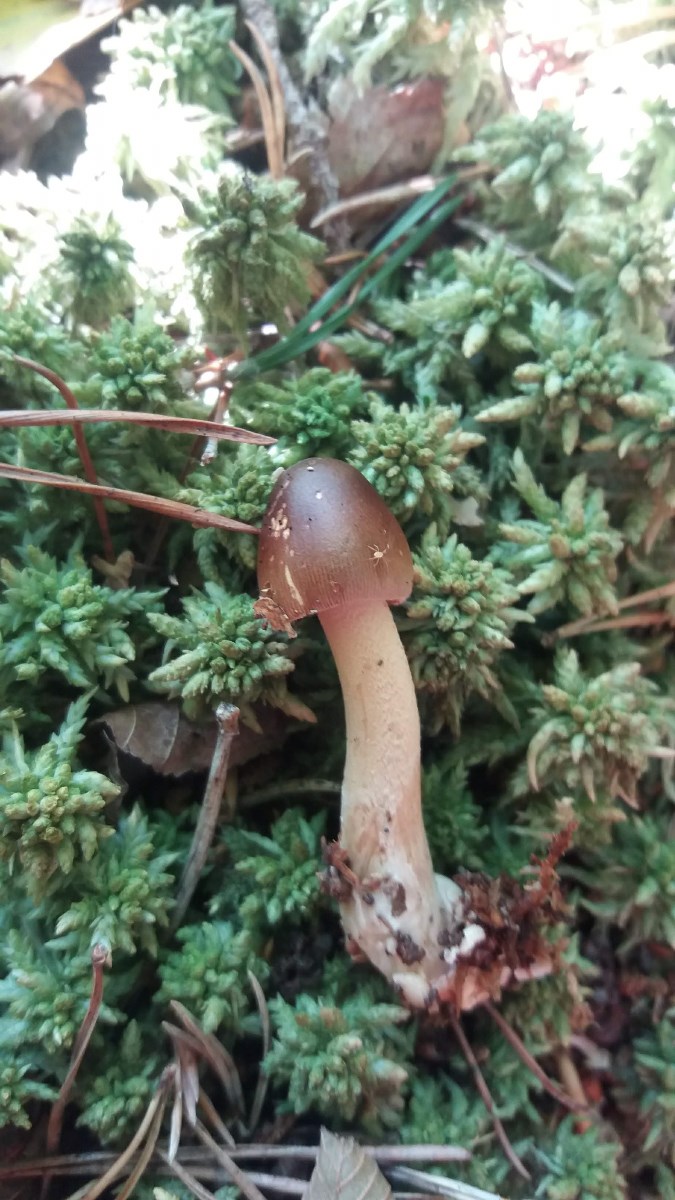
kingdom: Fungi
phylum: Basidiomycota
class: Agaricomycetes
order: Agaricales
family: Amanitaceae
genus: Amanita
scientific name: Amanita fulva
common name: brun kam-fluesvamp
